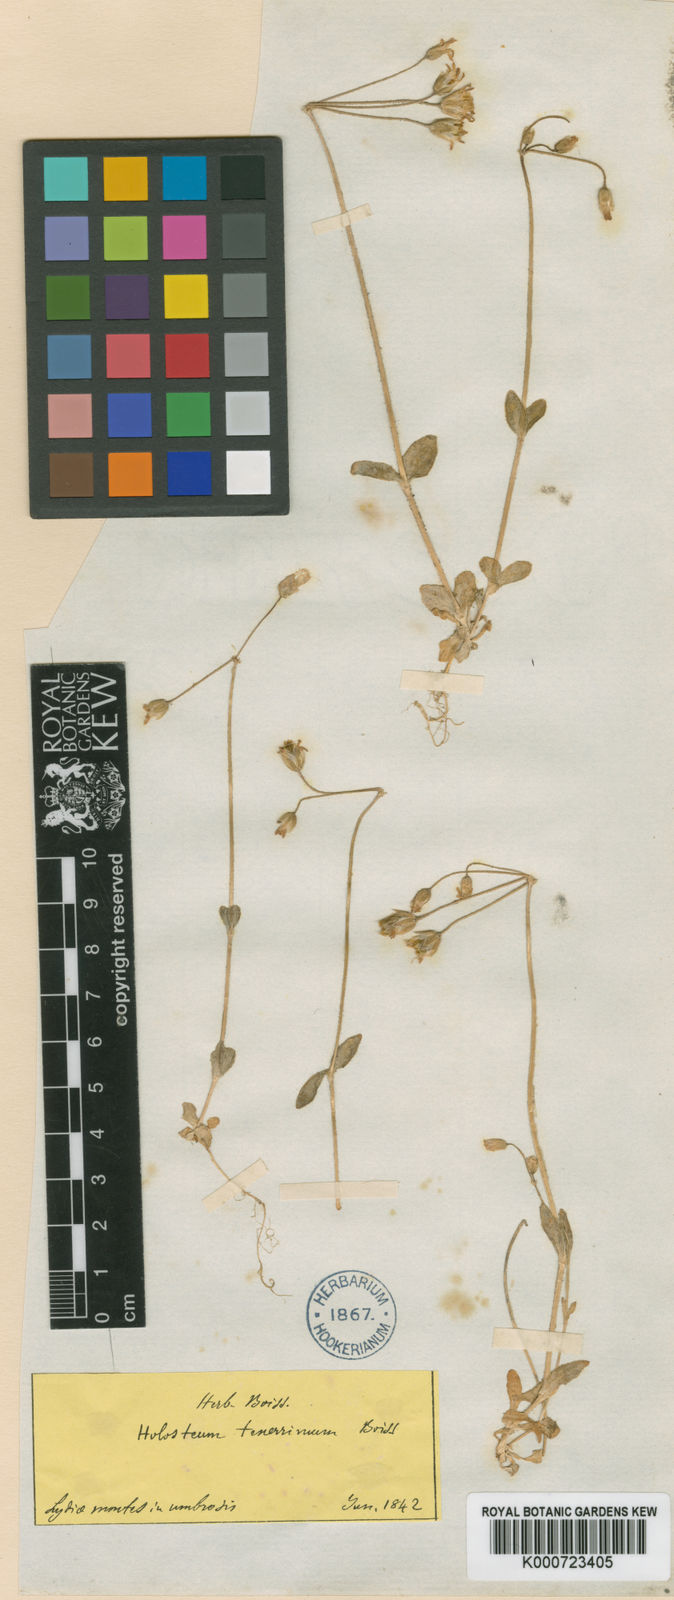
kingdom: Plantae
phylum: Tracheophyta
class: Magnoliopsida
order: Caryophyllales
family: Caryophyllaceae
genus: Holosteum
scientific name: Holosteum umbellatum
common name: Jagged chickweed
